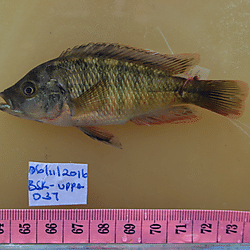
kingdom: Animalia
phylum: Chordata
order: Perciformes
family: Cichlidae
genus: Paralabidochromis
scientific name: Paralabidochromis
